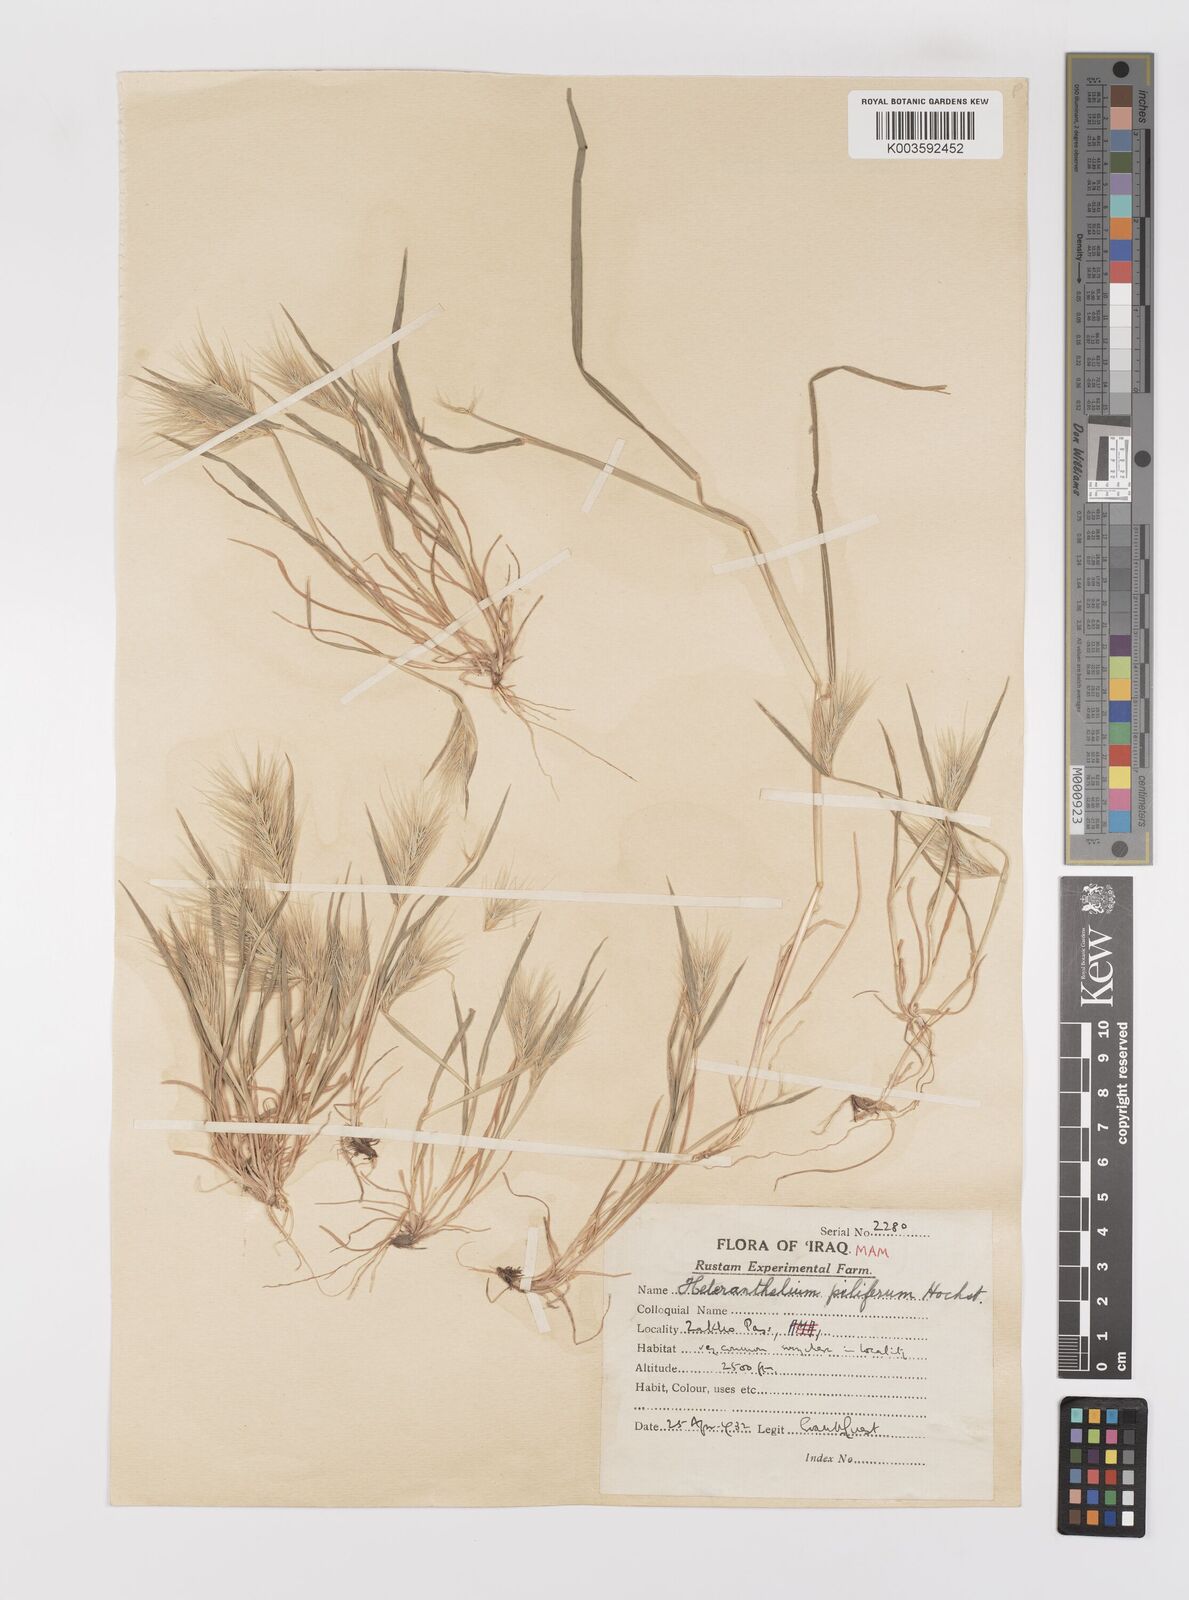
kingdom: Plantae
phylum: Tracheophyta
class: Liliopsida
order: Poales
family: Poaceae
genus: Heteranthelium
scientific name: Heteranthelium piliferum
